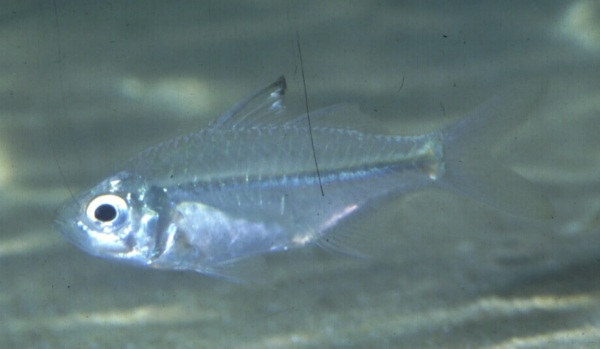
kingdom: Animalia
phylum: Chordata
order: Perciformes
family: Ambassidae
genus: Ambassis
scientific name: Ambassis
